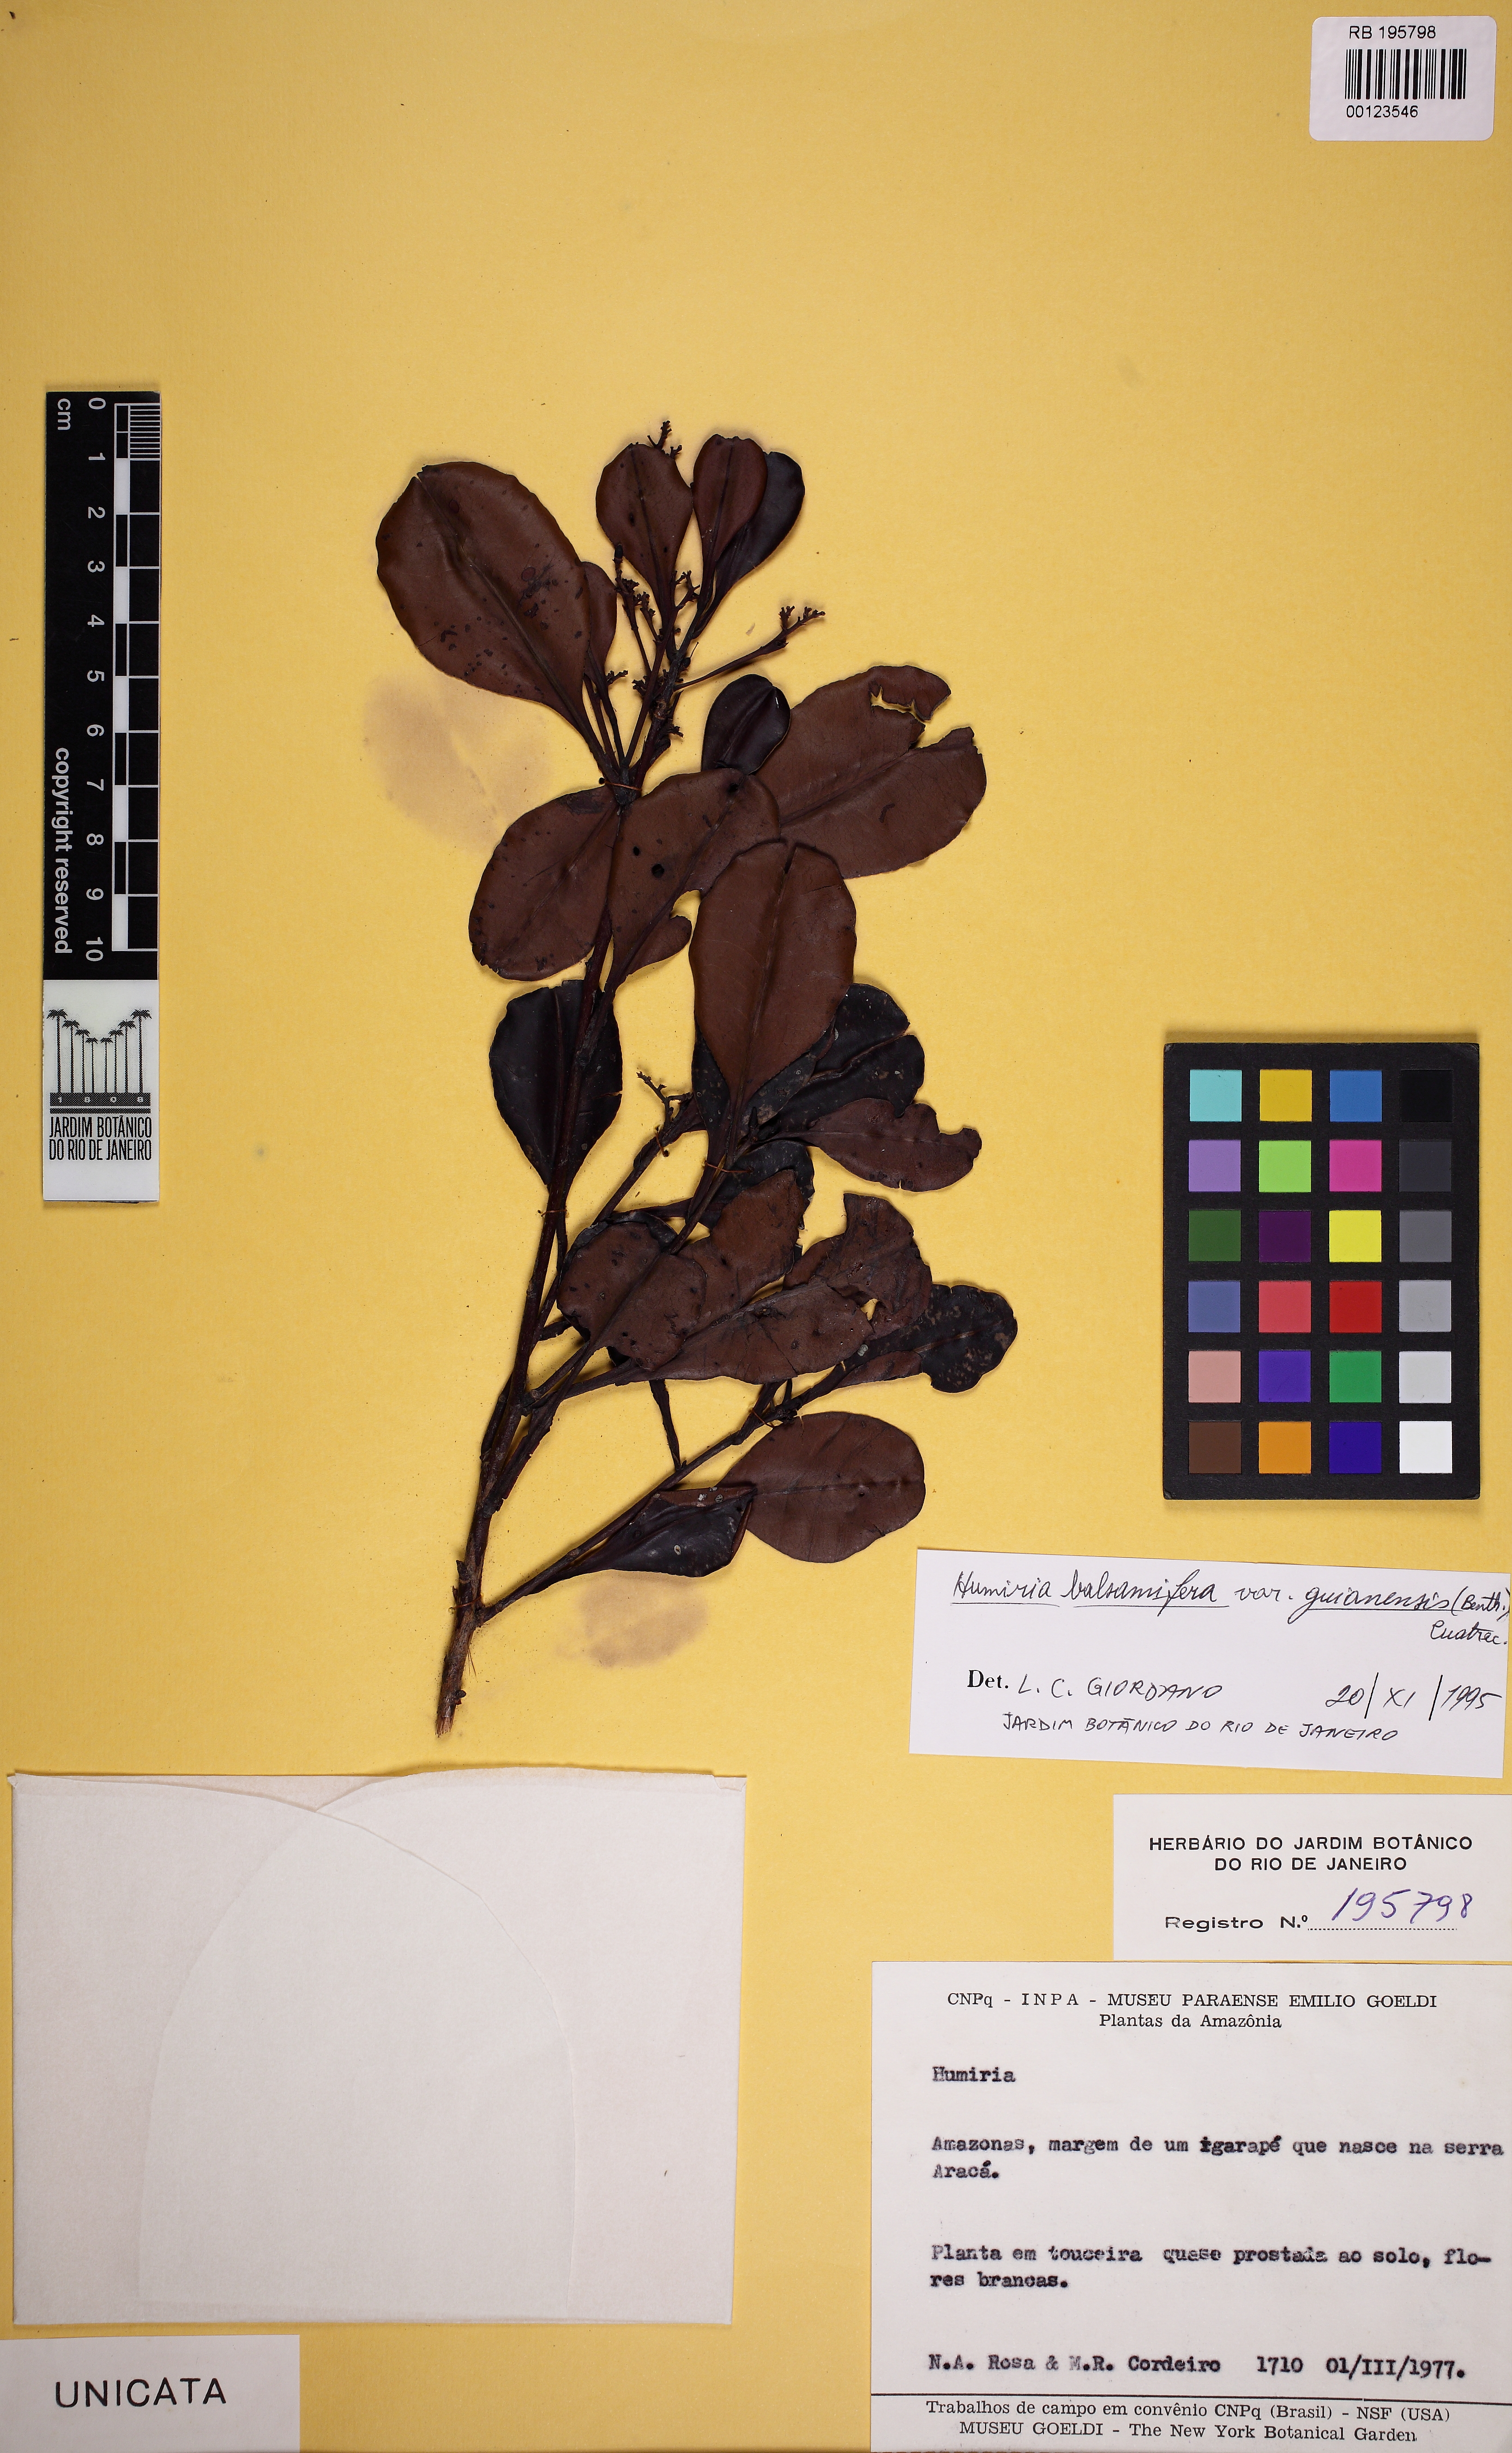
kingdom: Plantae
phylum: Tracheophyta
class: Magnoliopsida
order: Malpighiales
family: Humiriaceae
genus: Humiria
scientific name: Humiria balsamifera
